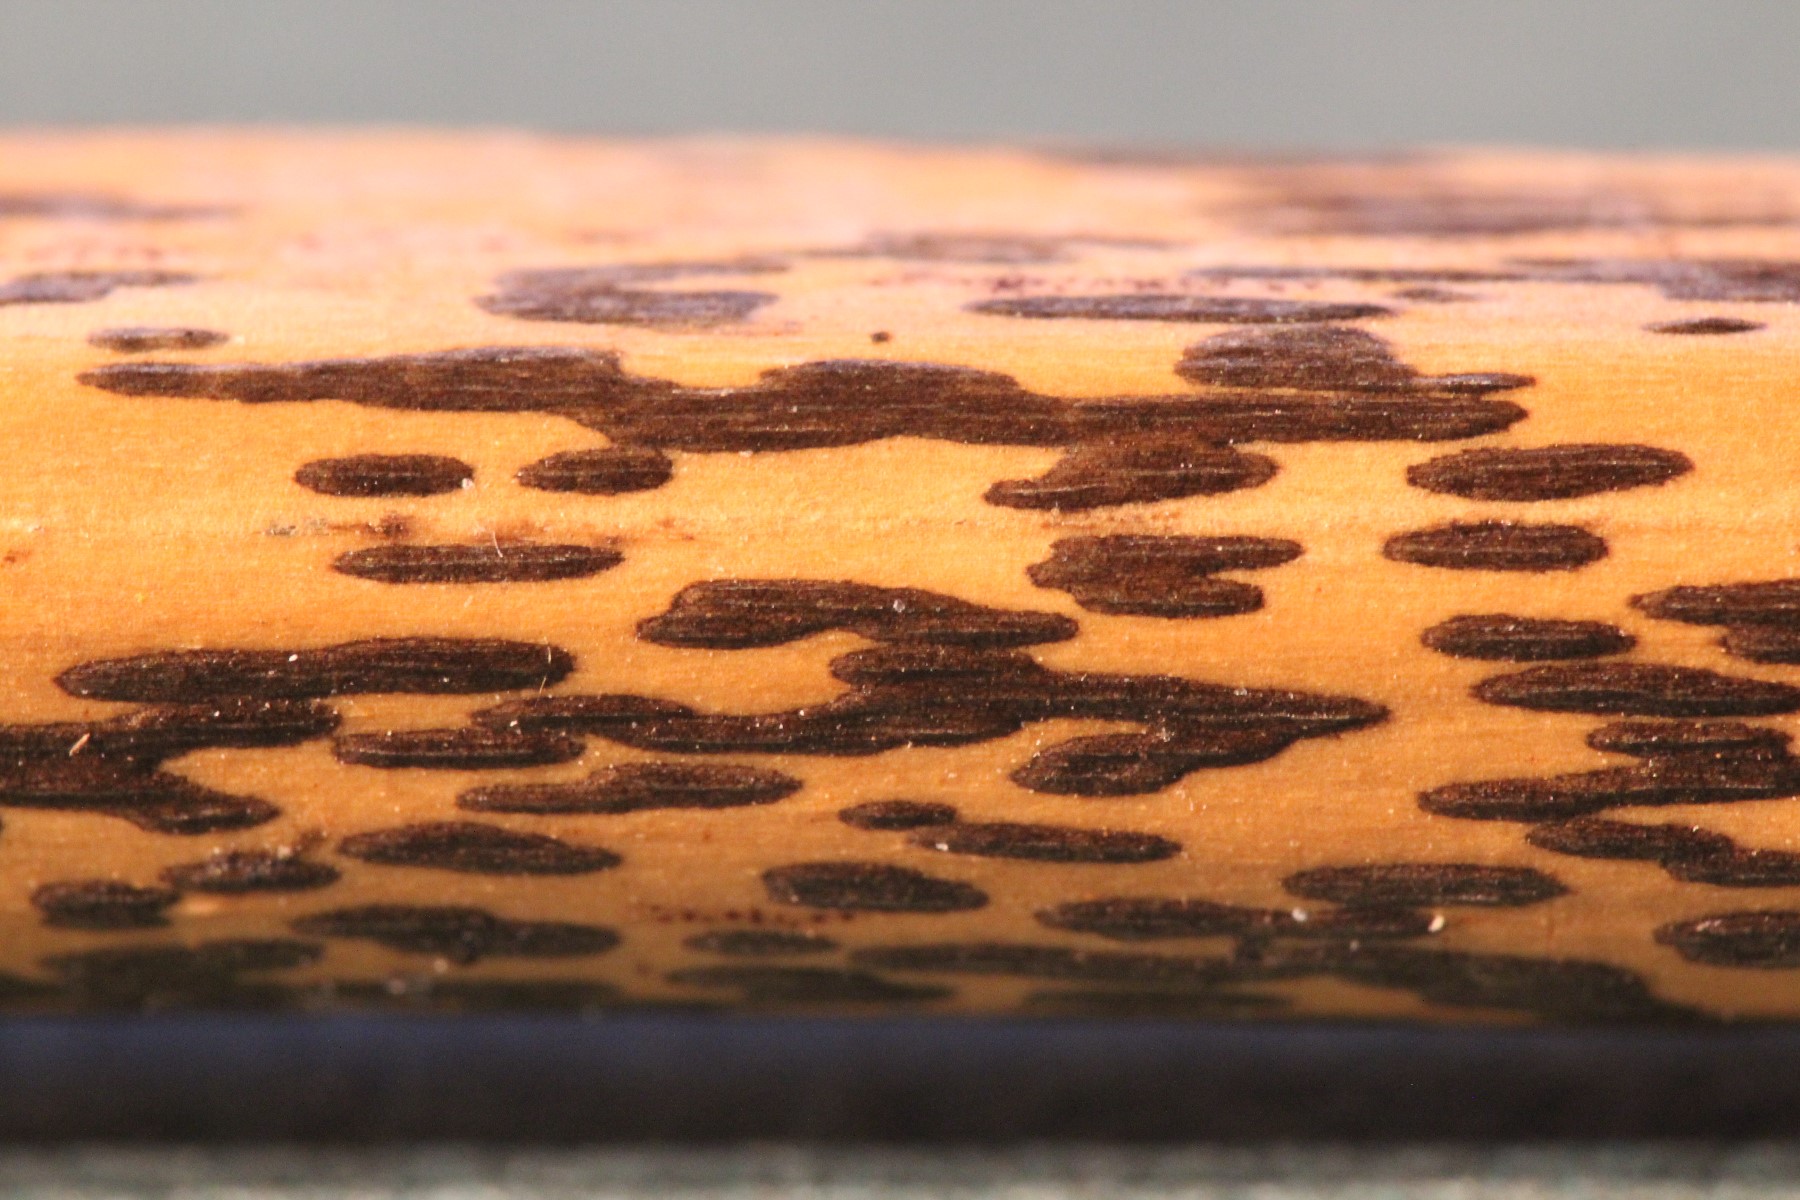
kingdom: Fungi
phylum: Ascomycota
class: Dothideomycetes
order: Pleosporales
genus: Rhopographus
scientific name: Rhopographus filicinus
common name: Bracken map
